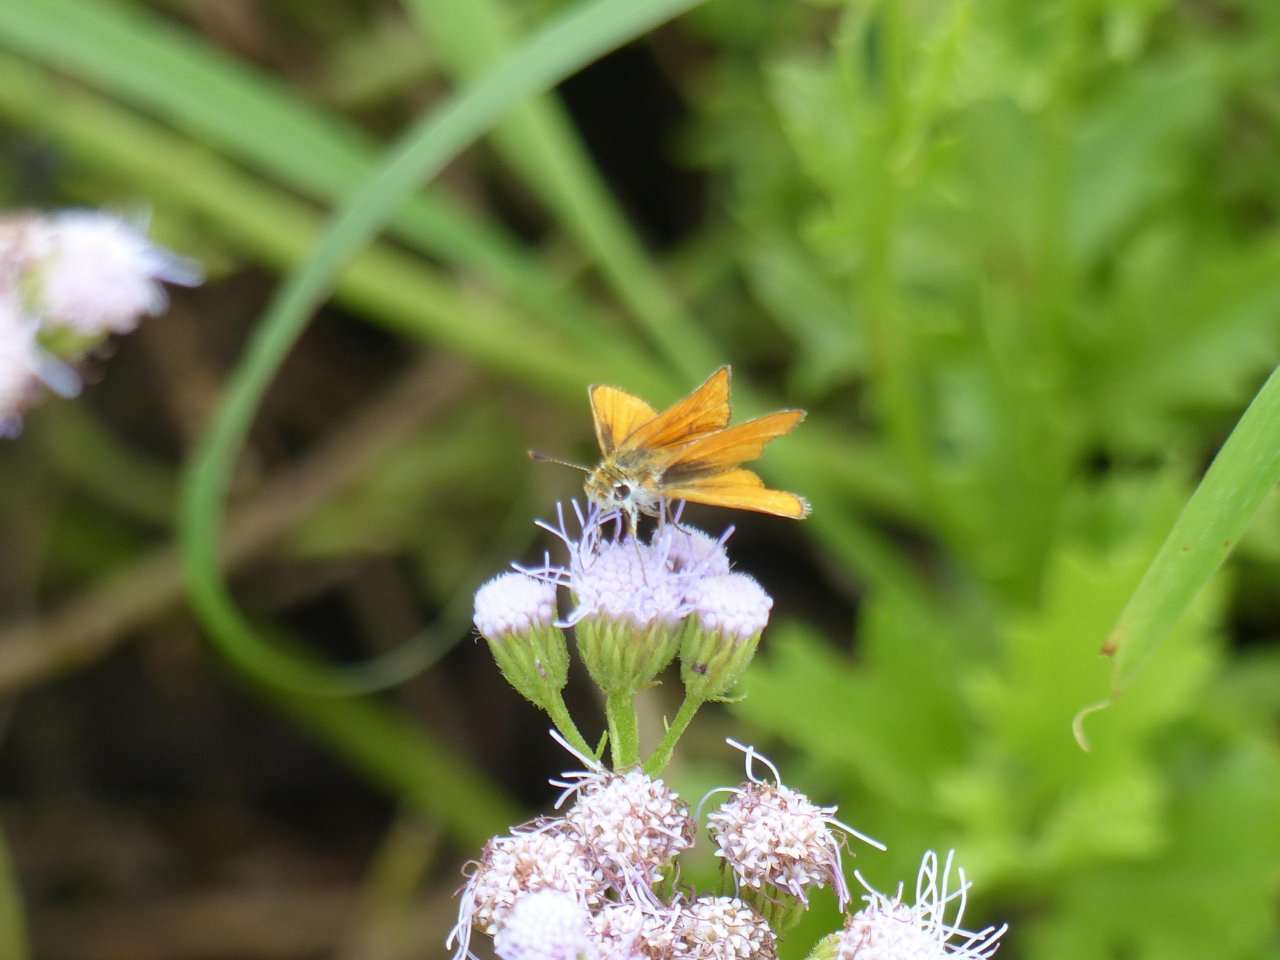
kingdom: Animalia
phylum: Arthropoda
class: Insecta
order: Lepidoptera
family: Hesperiidae
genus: Copaeodes
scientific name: Copaeodes minima
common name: Southern Skipperling
